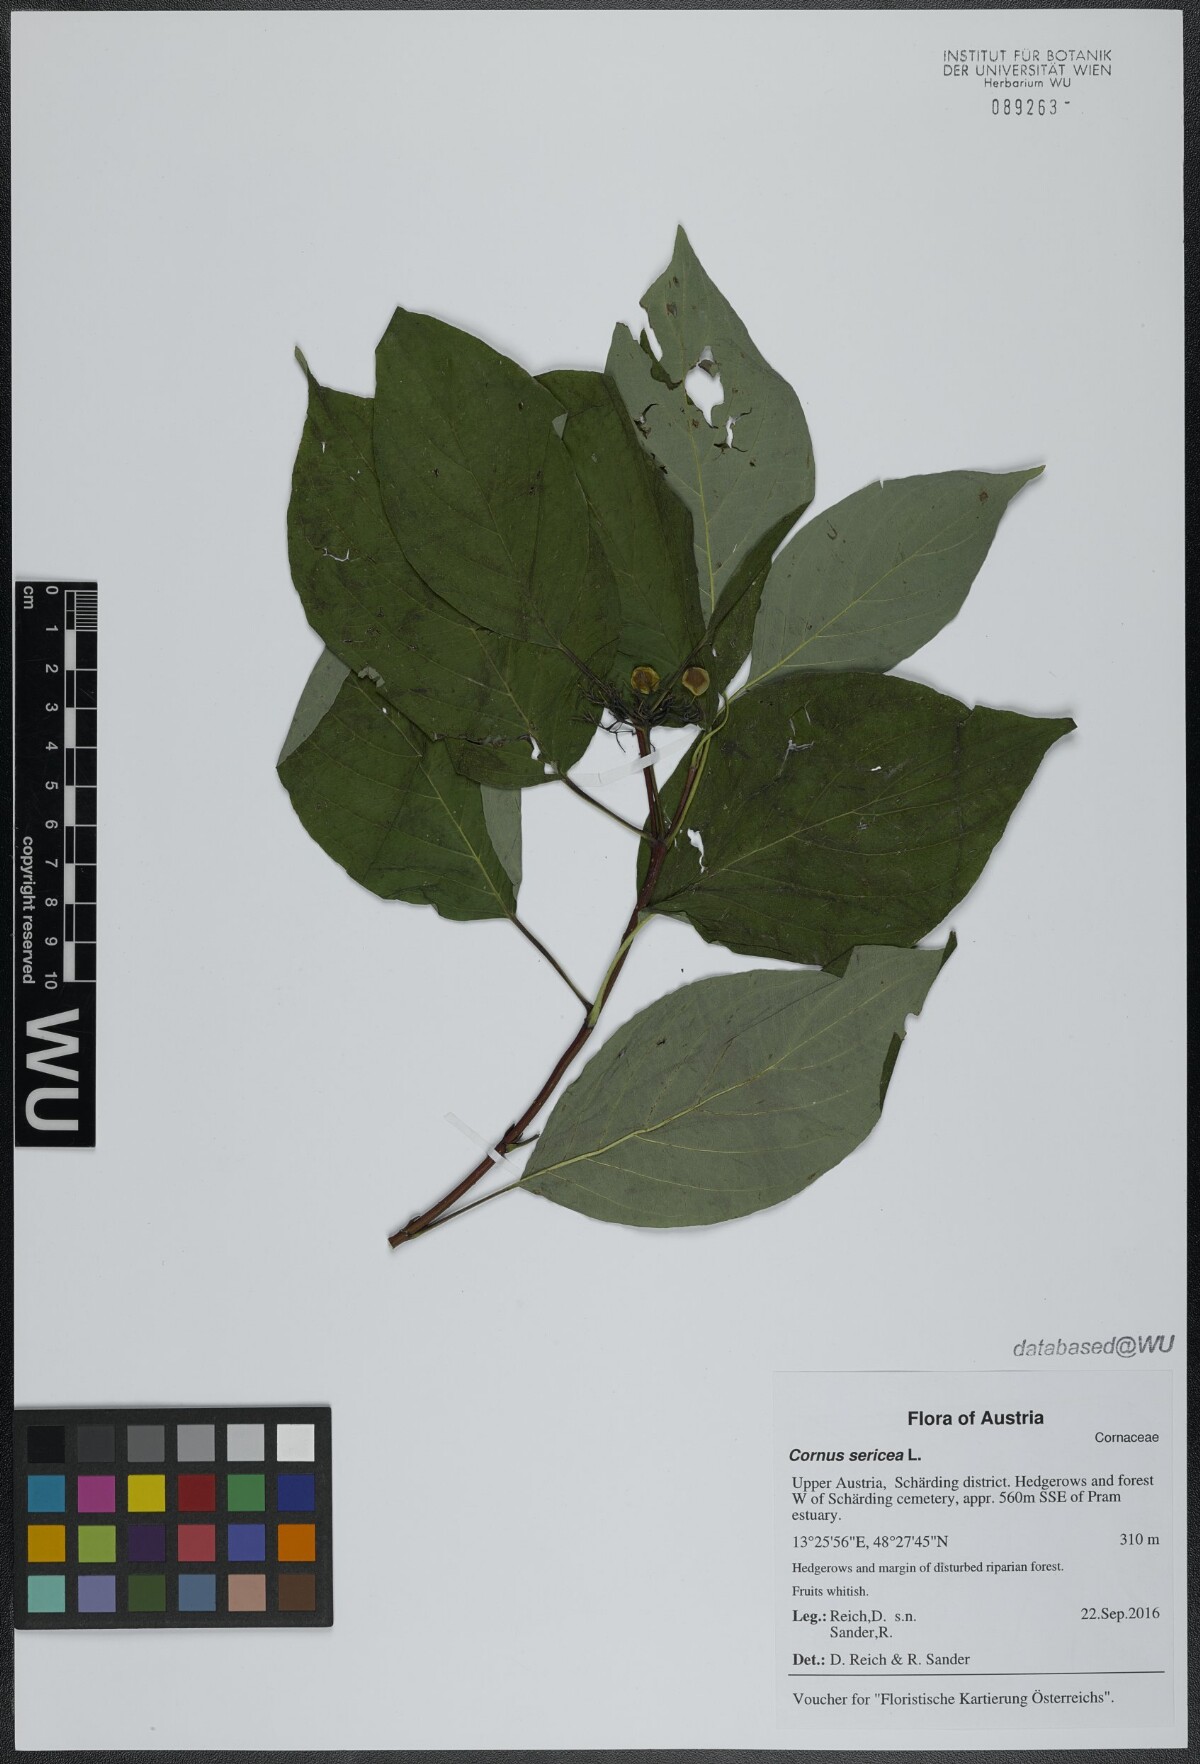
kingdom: Plantae
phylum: Tracheophyta
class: Magnoliopsida
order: Cornales
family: Cornaceae
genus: Cornus
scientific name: Cornus sericea
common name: Red-osier dogwood
